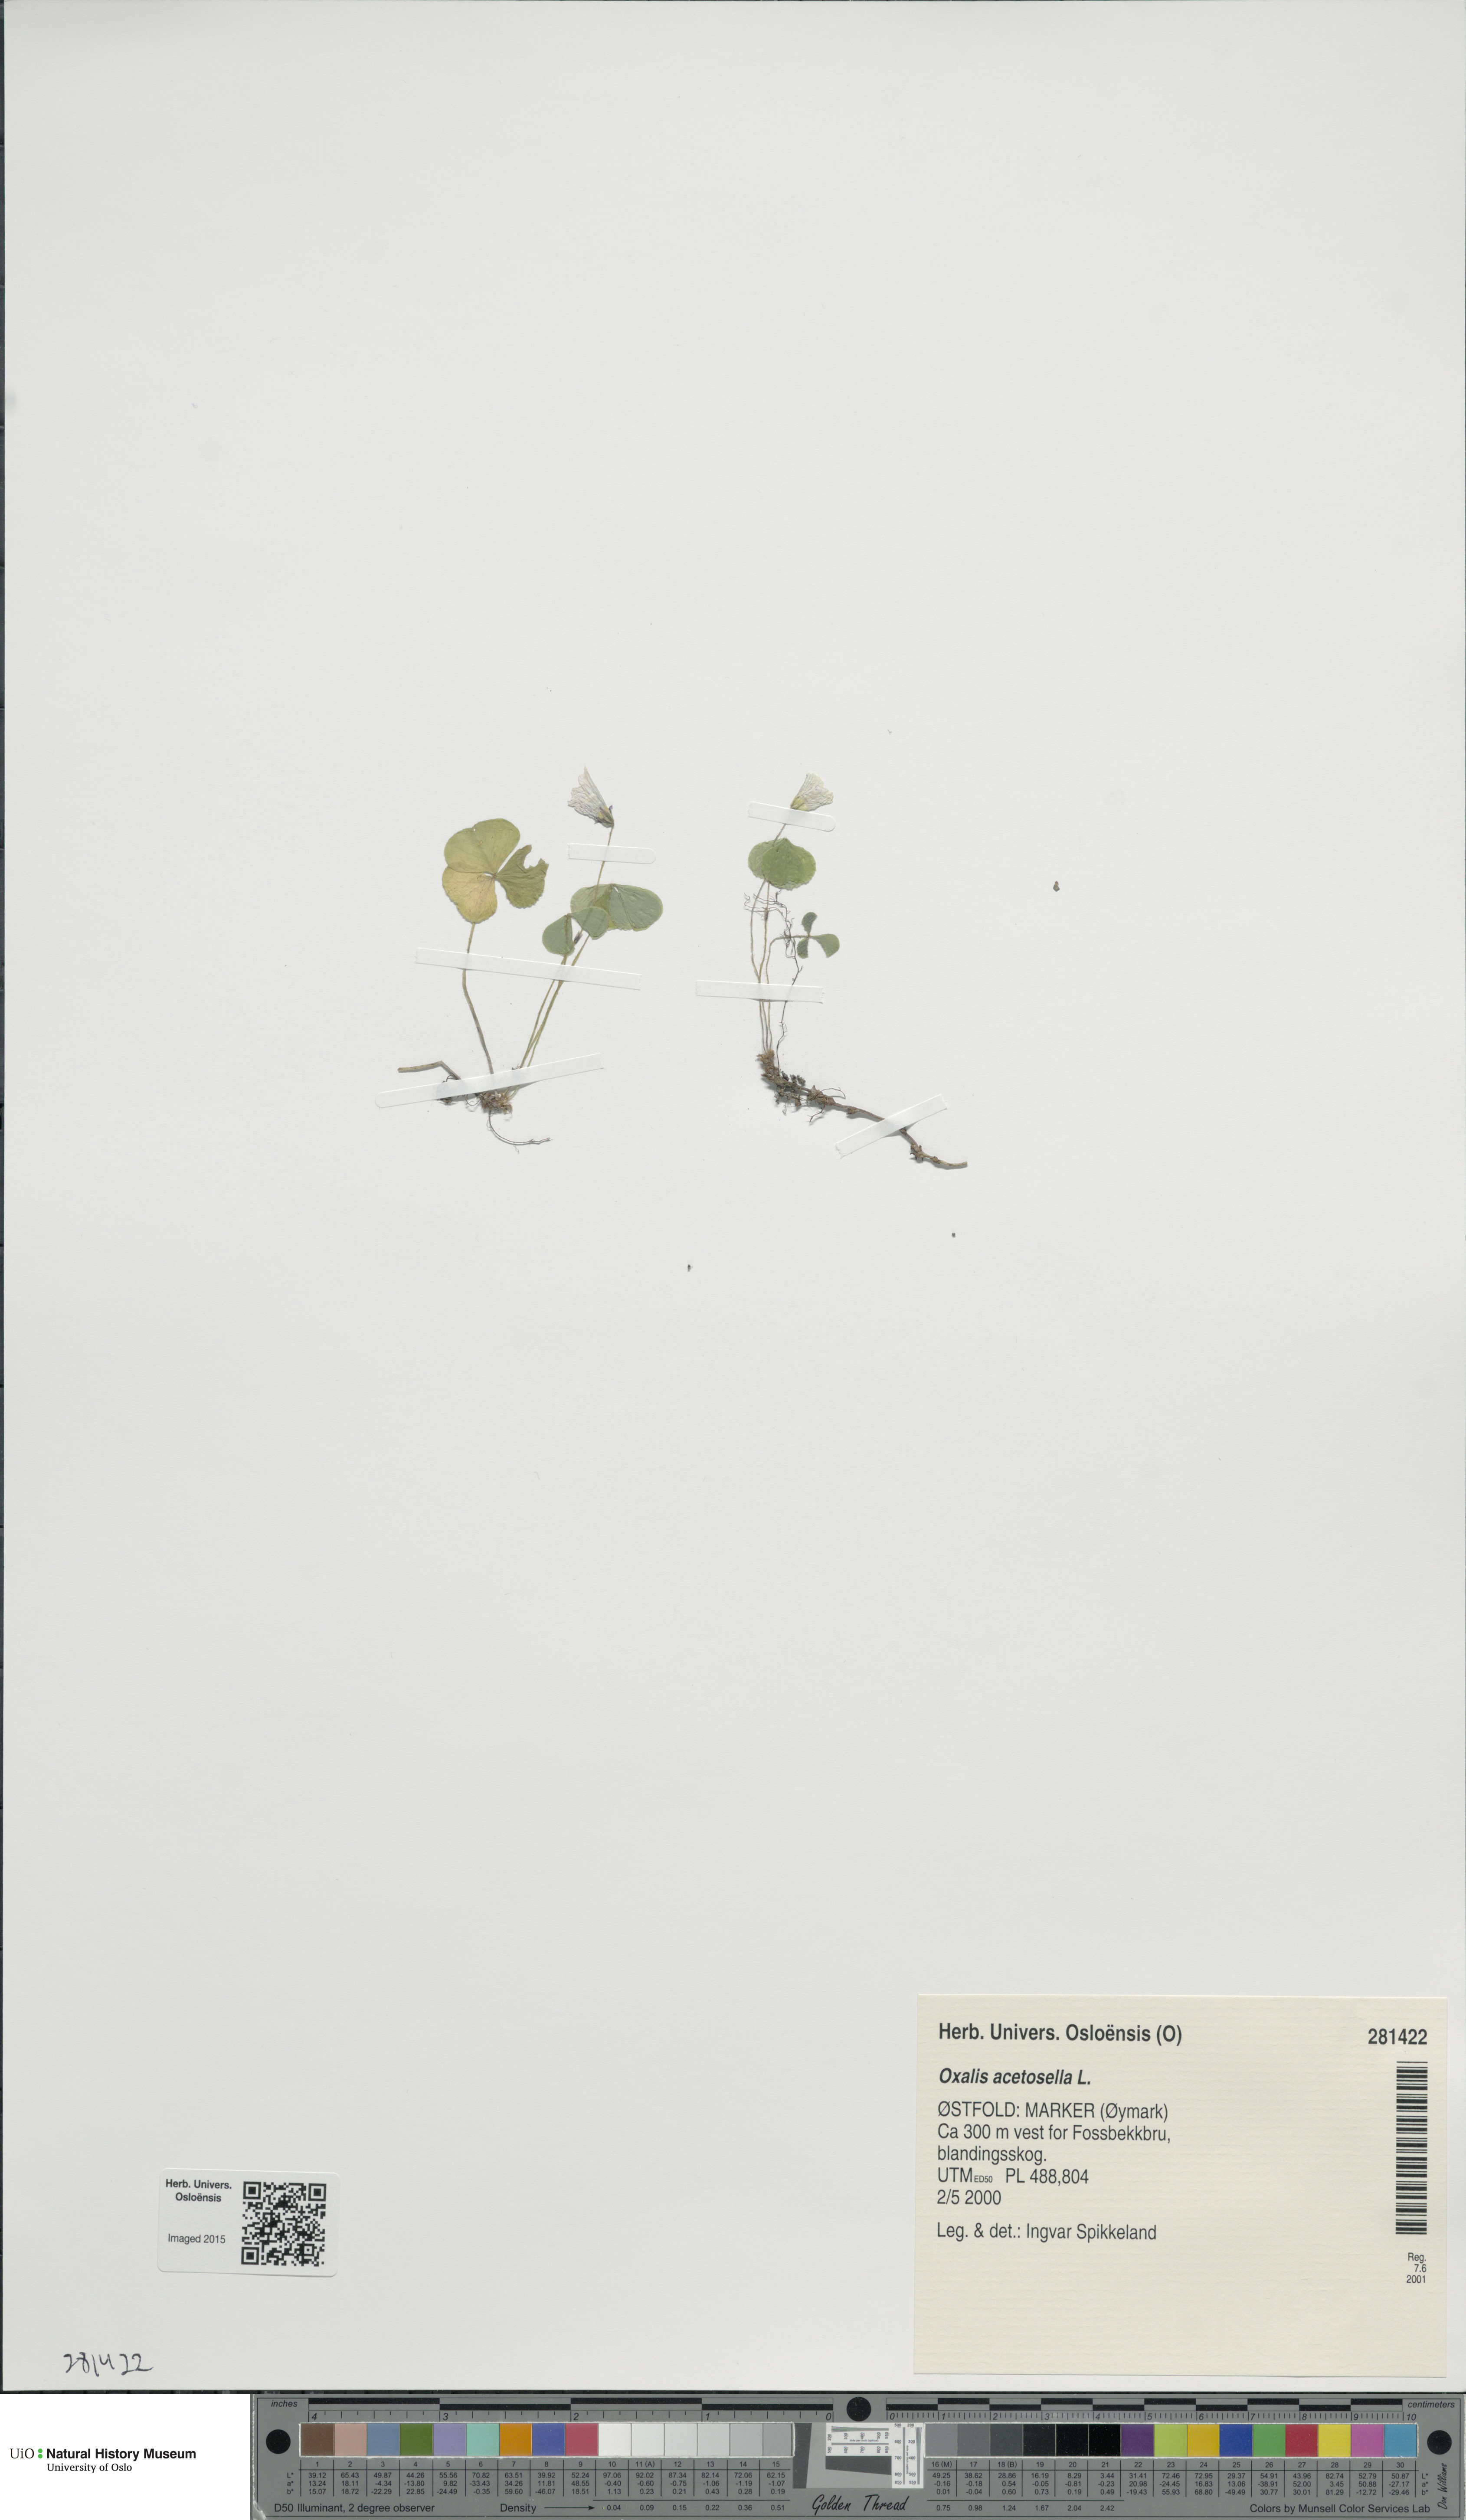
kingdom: Plantae
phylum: Tracheophyta
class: Magnoliopsida
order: Oxalidales
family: Oxalidaceae
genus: Oxalis
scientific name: Oxalis acetosella
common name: Wood-sorrel
